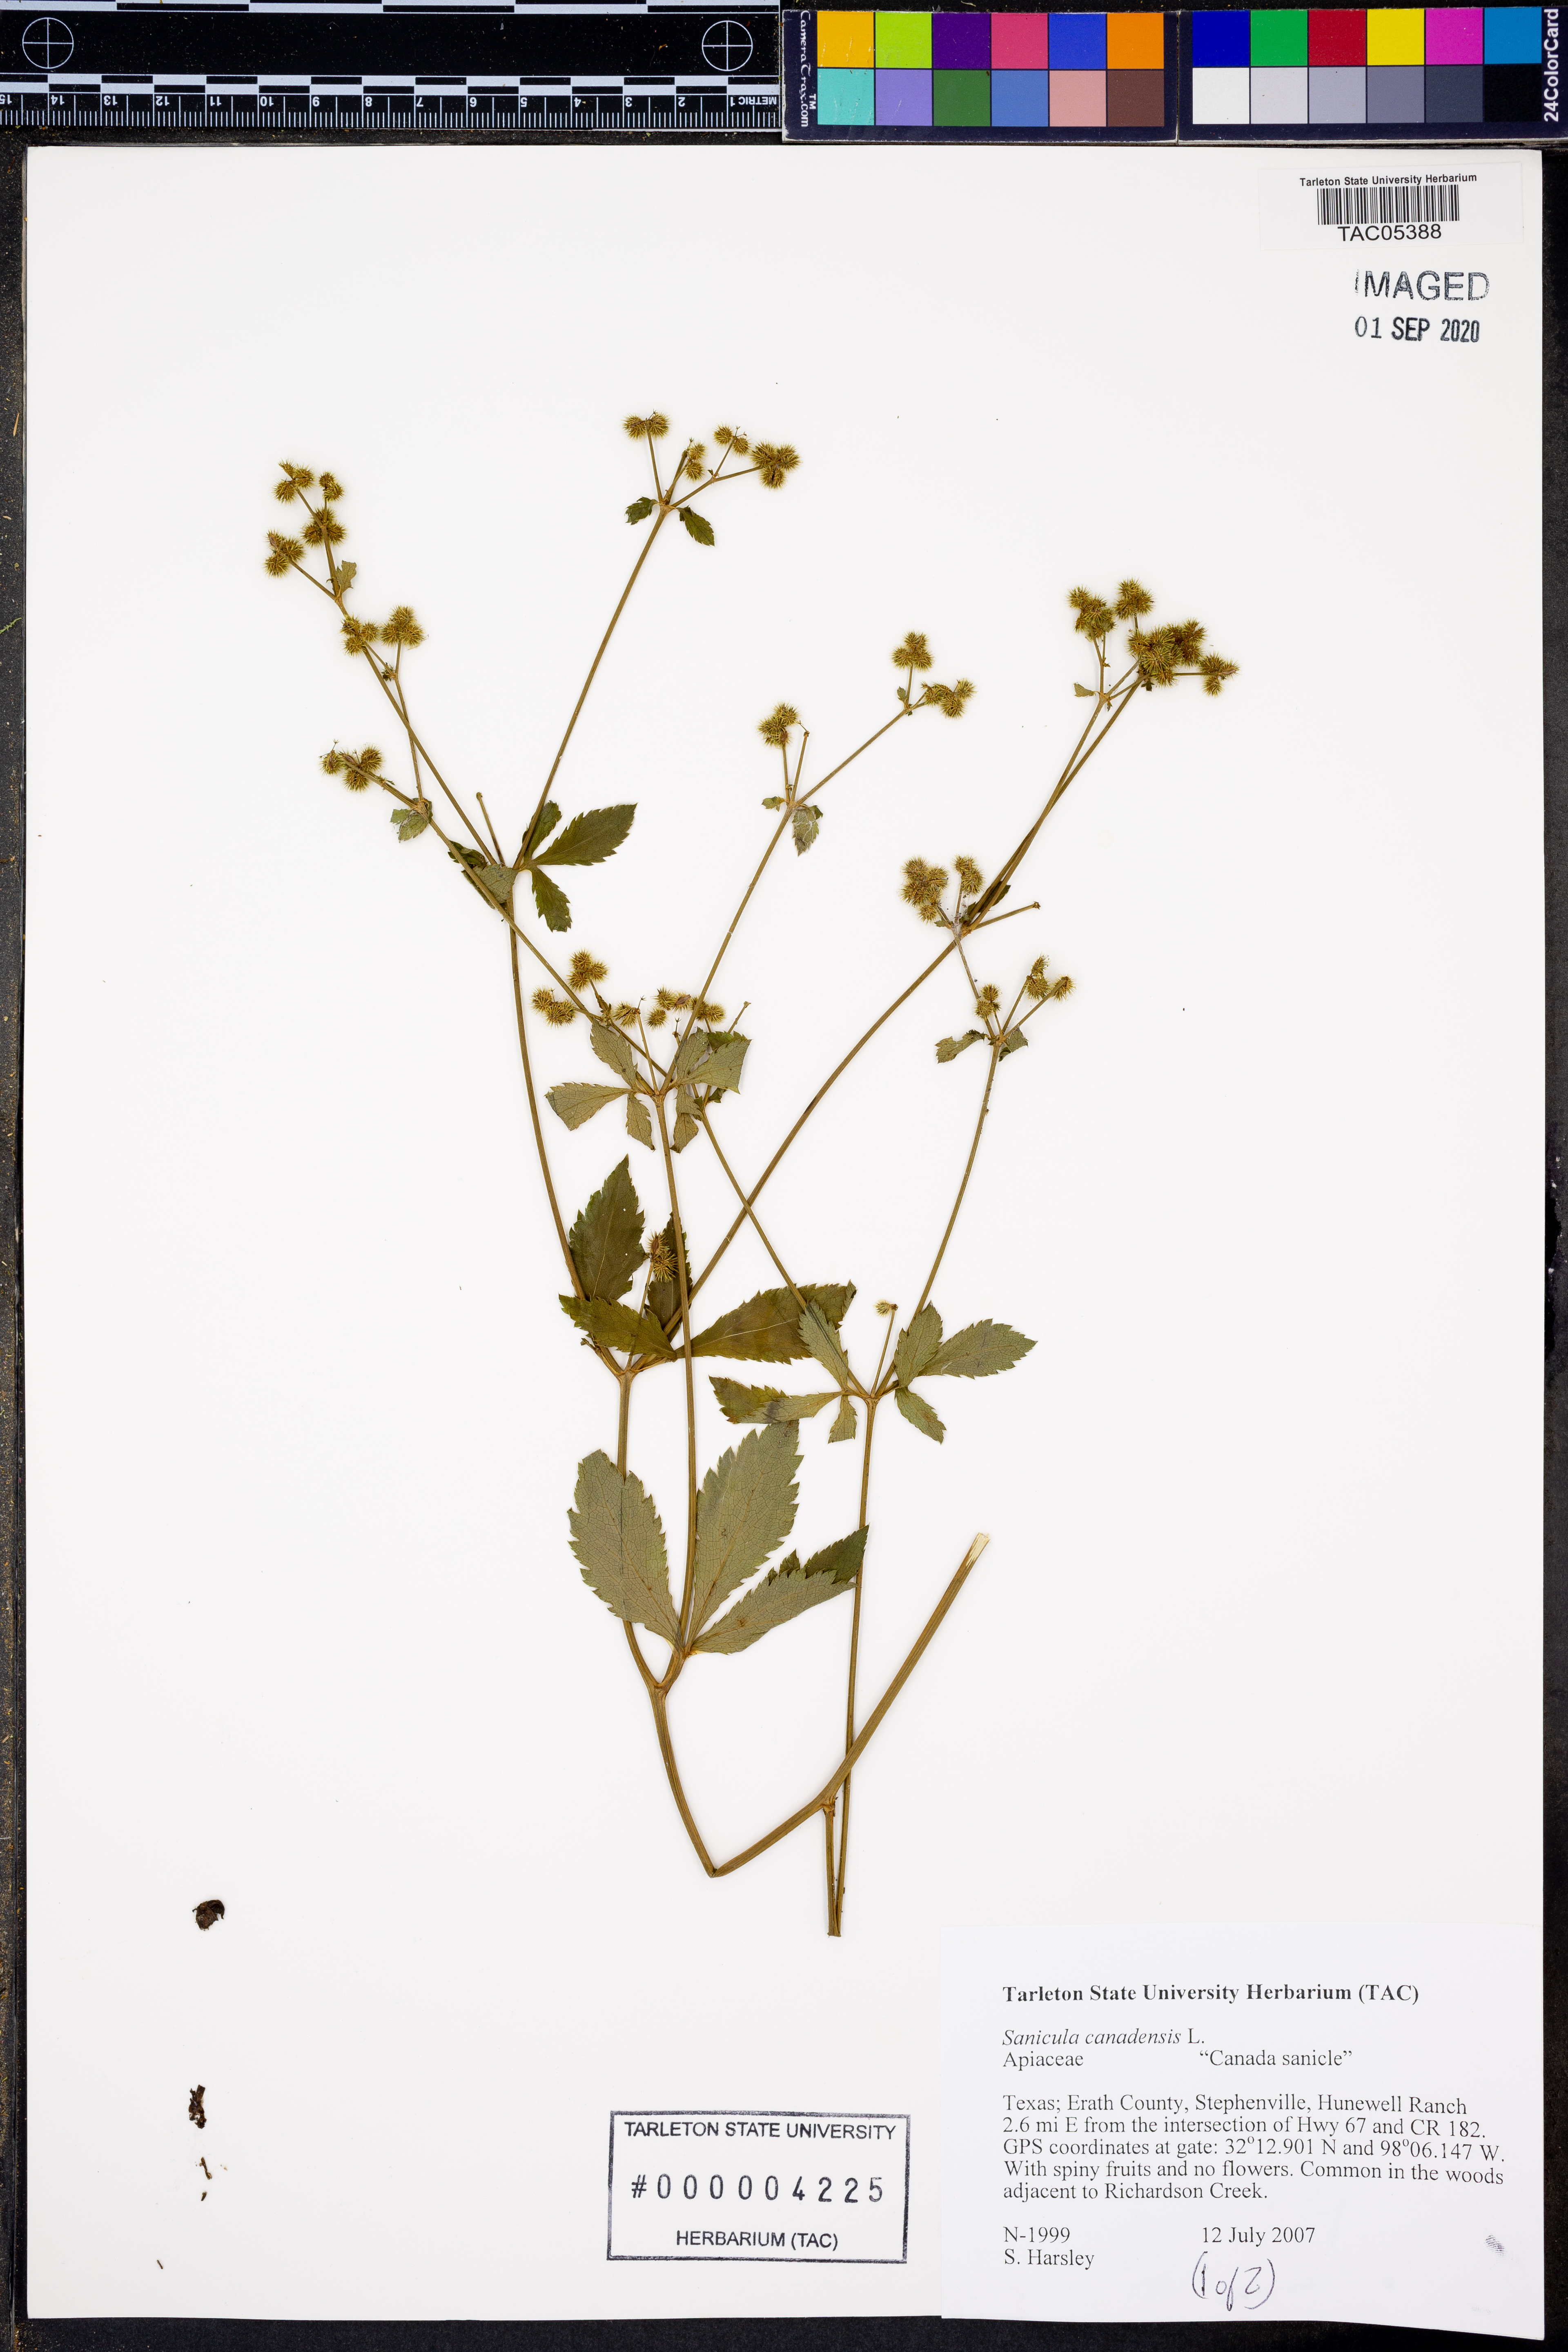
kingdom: Plantae
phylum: Tracheophyta
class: Magnoliopsida
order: Apiales
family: Apiaceae
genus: Sanicula
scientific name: Sanicula canadensis
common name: Canada sanicle
